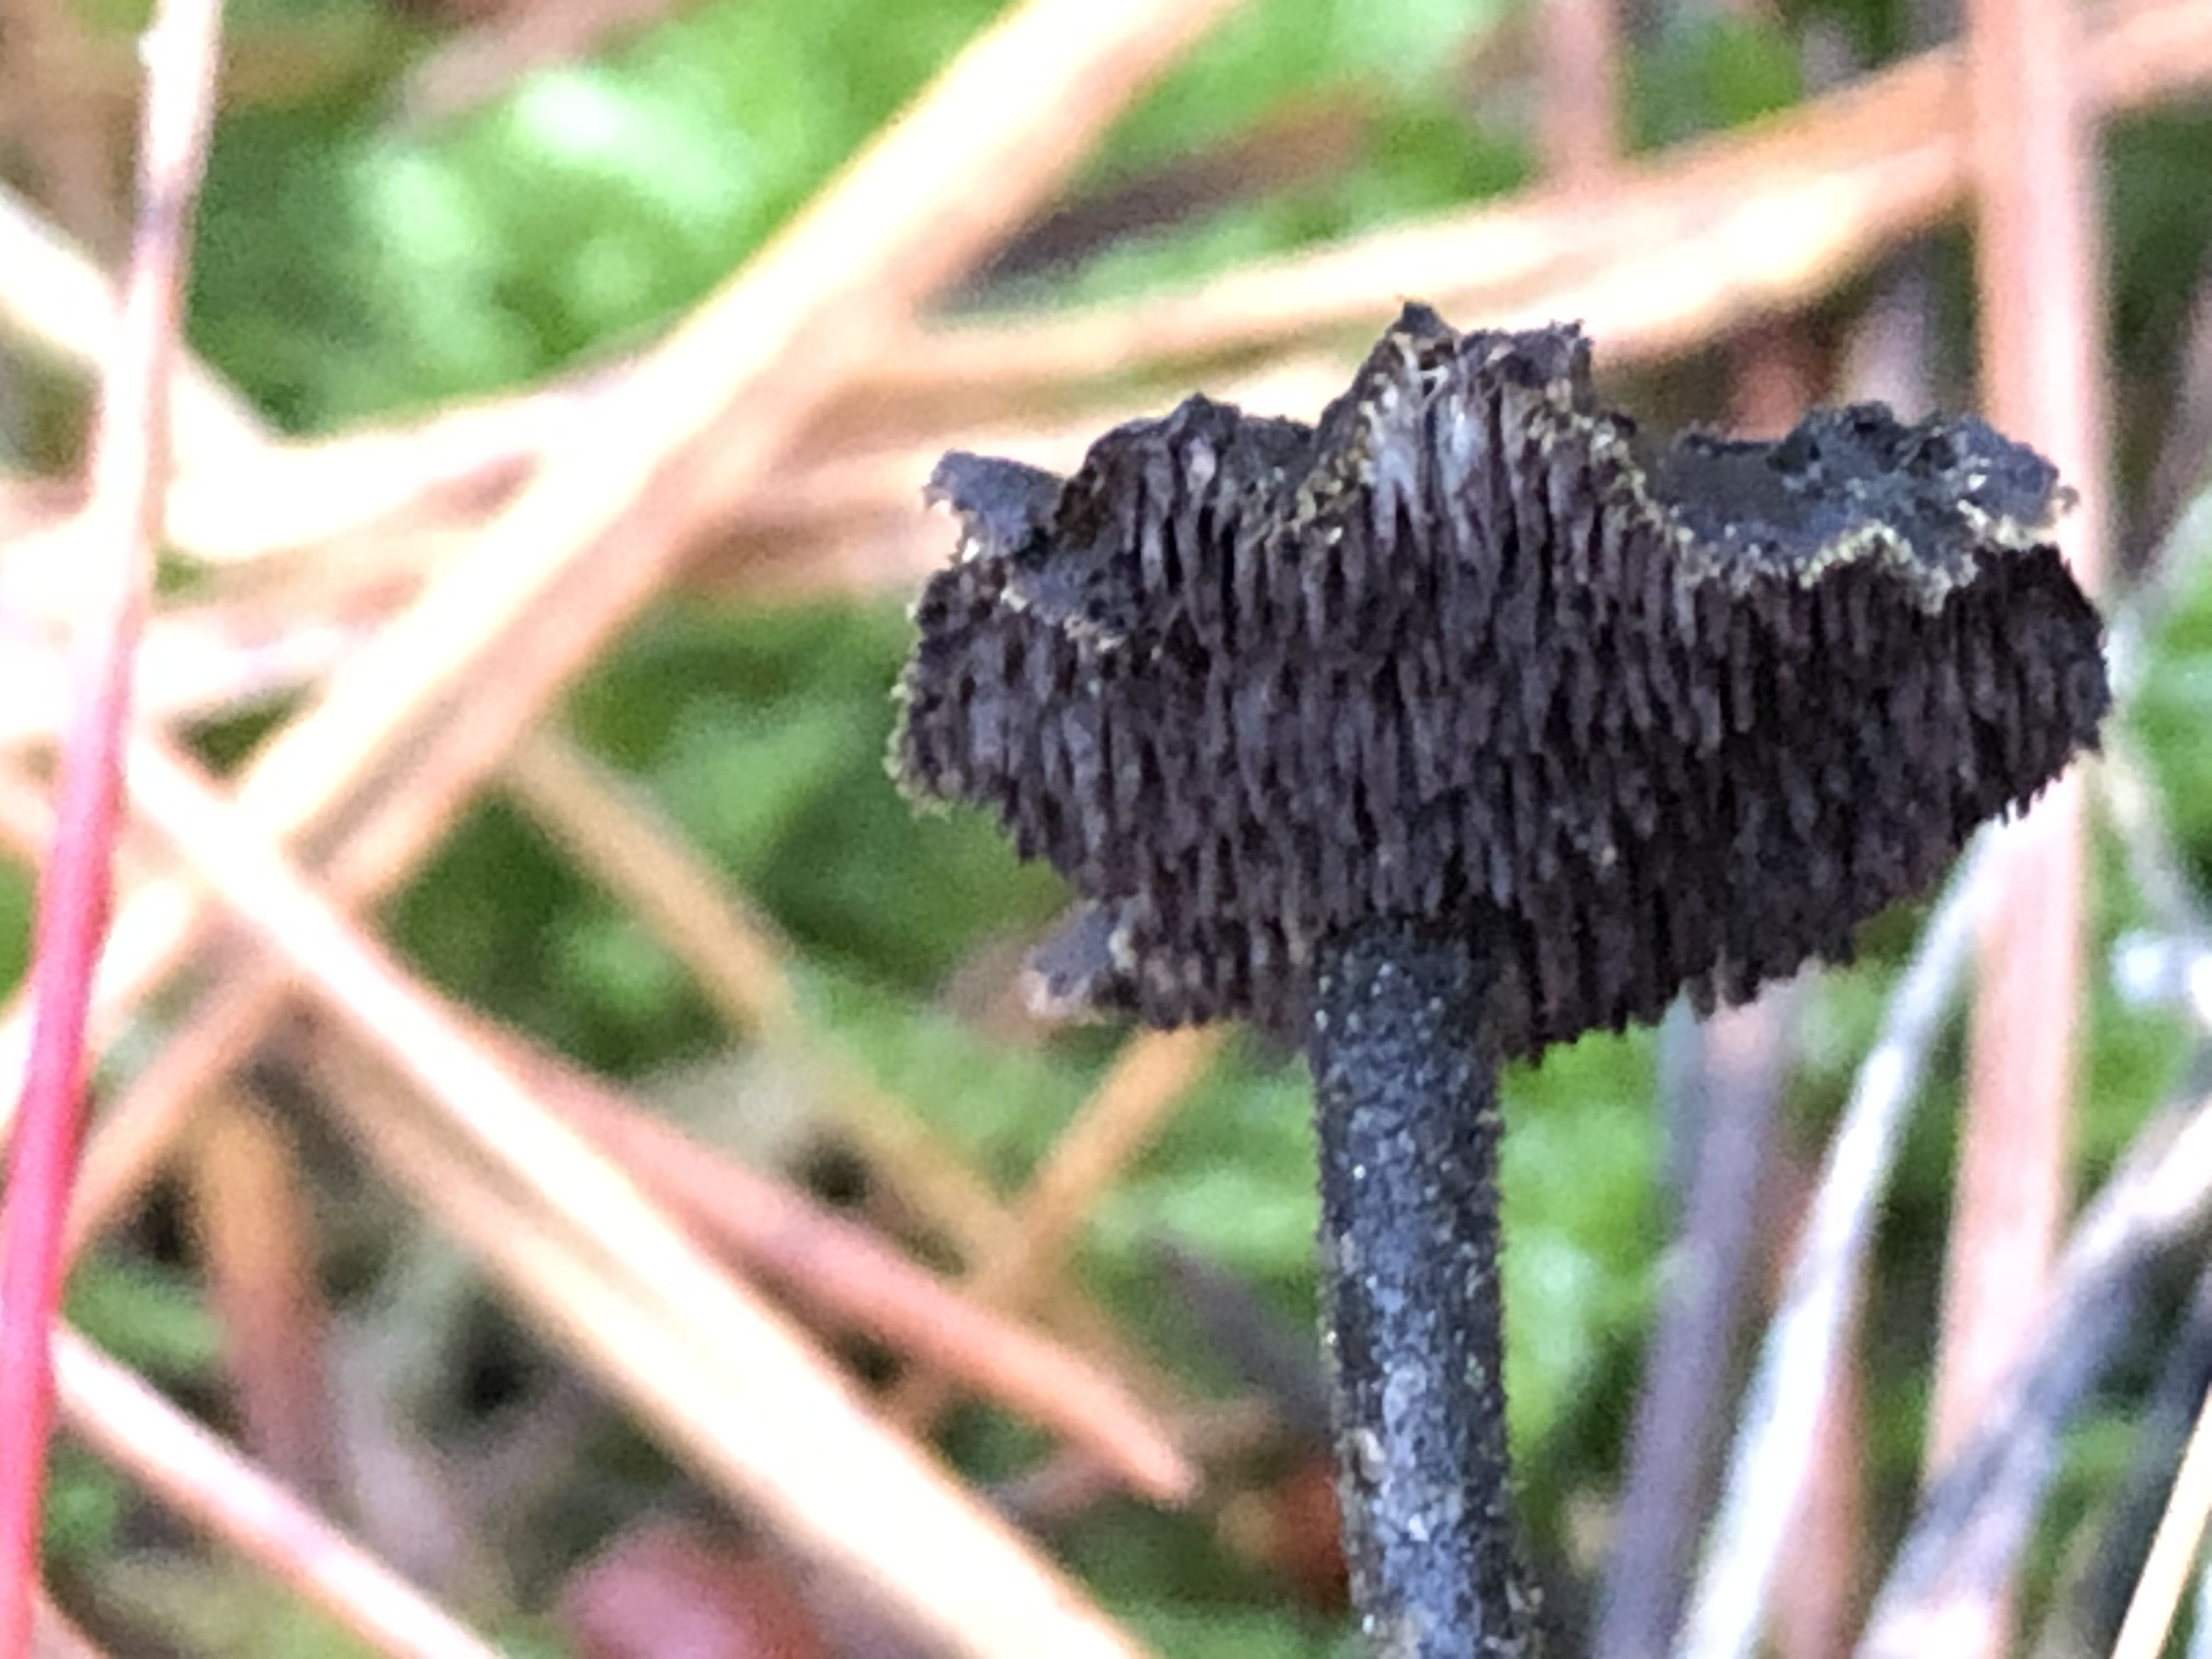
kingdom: Fungi
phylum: Basidiomycota
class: Agaricomycetes
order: Russulales
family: Auriscalpiaceae
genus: Auriscalpium
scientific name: Auriscalpium vulgare
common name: koglepigsvamp
